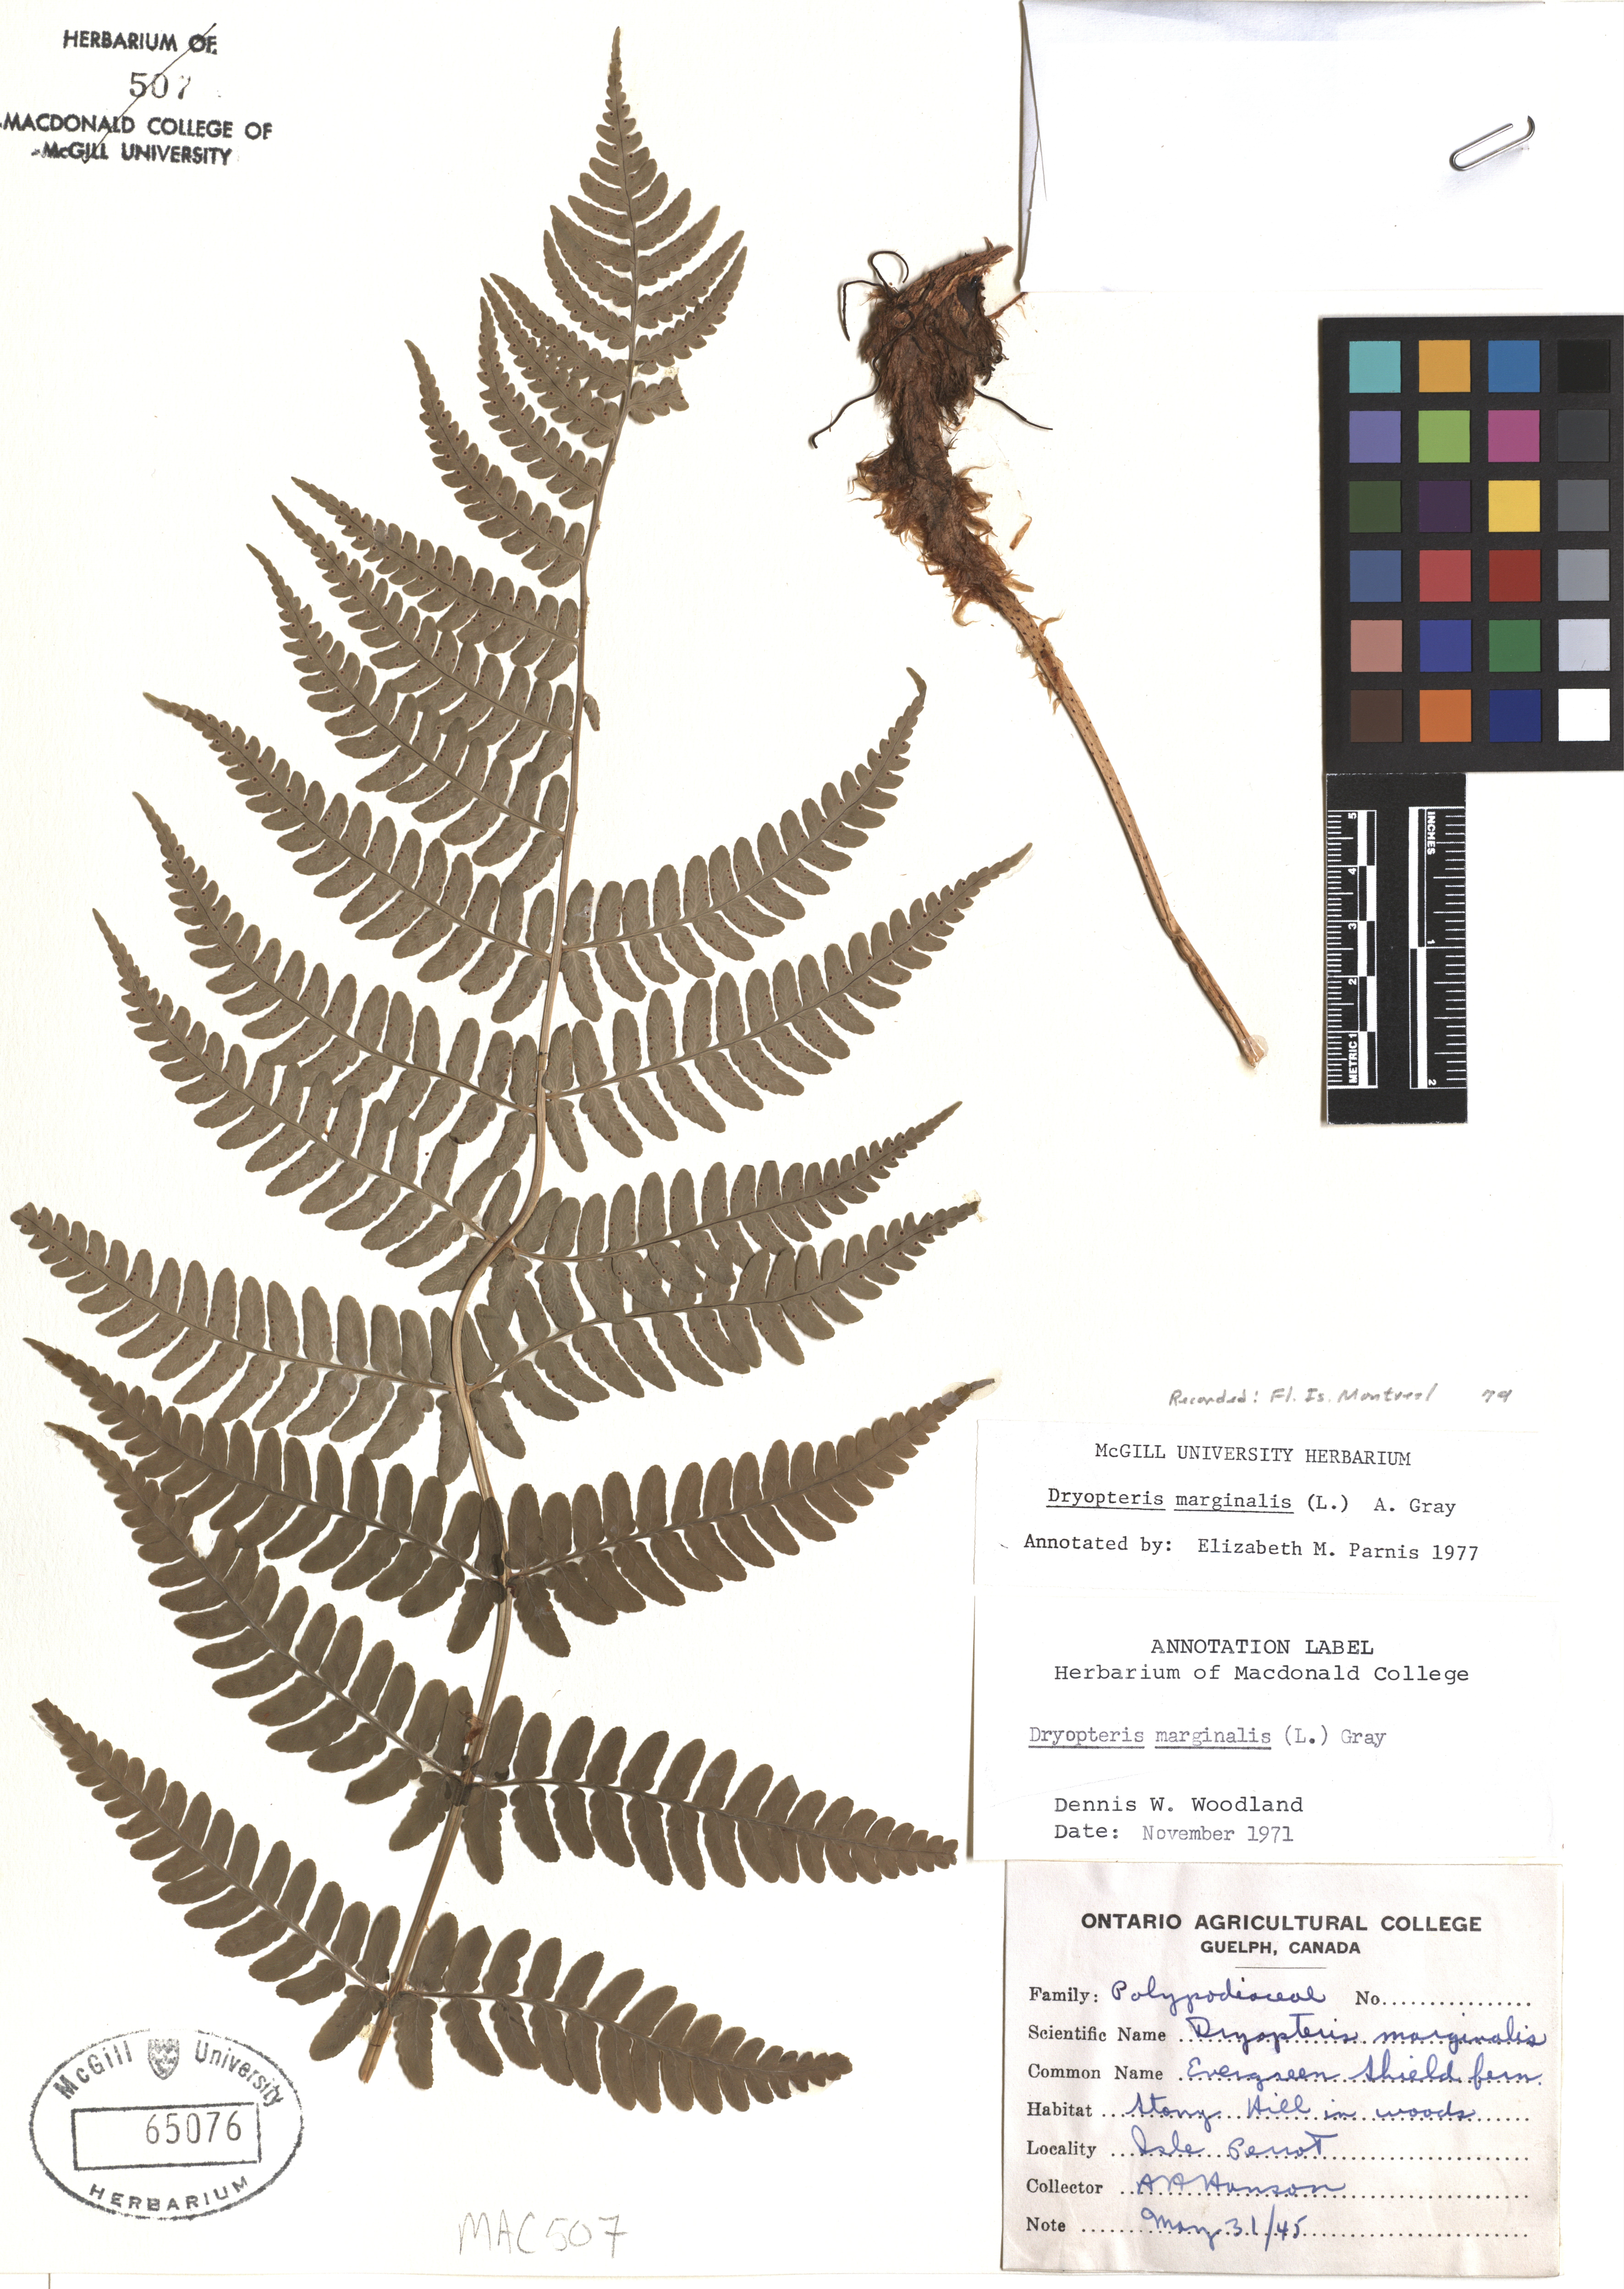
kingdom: Plantae
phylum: Tracheophyta
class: Polypodiopsida
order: Polypodiales
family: Dryopteridaceae
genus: Dryopteris
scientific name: Dryopteris marginalis
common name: Marginal wood fern
